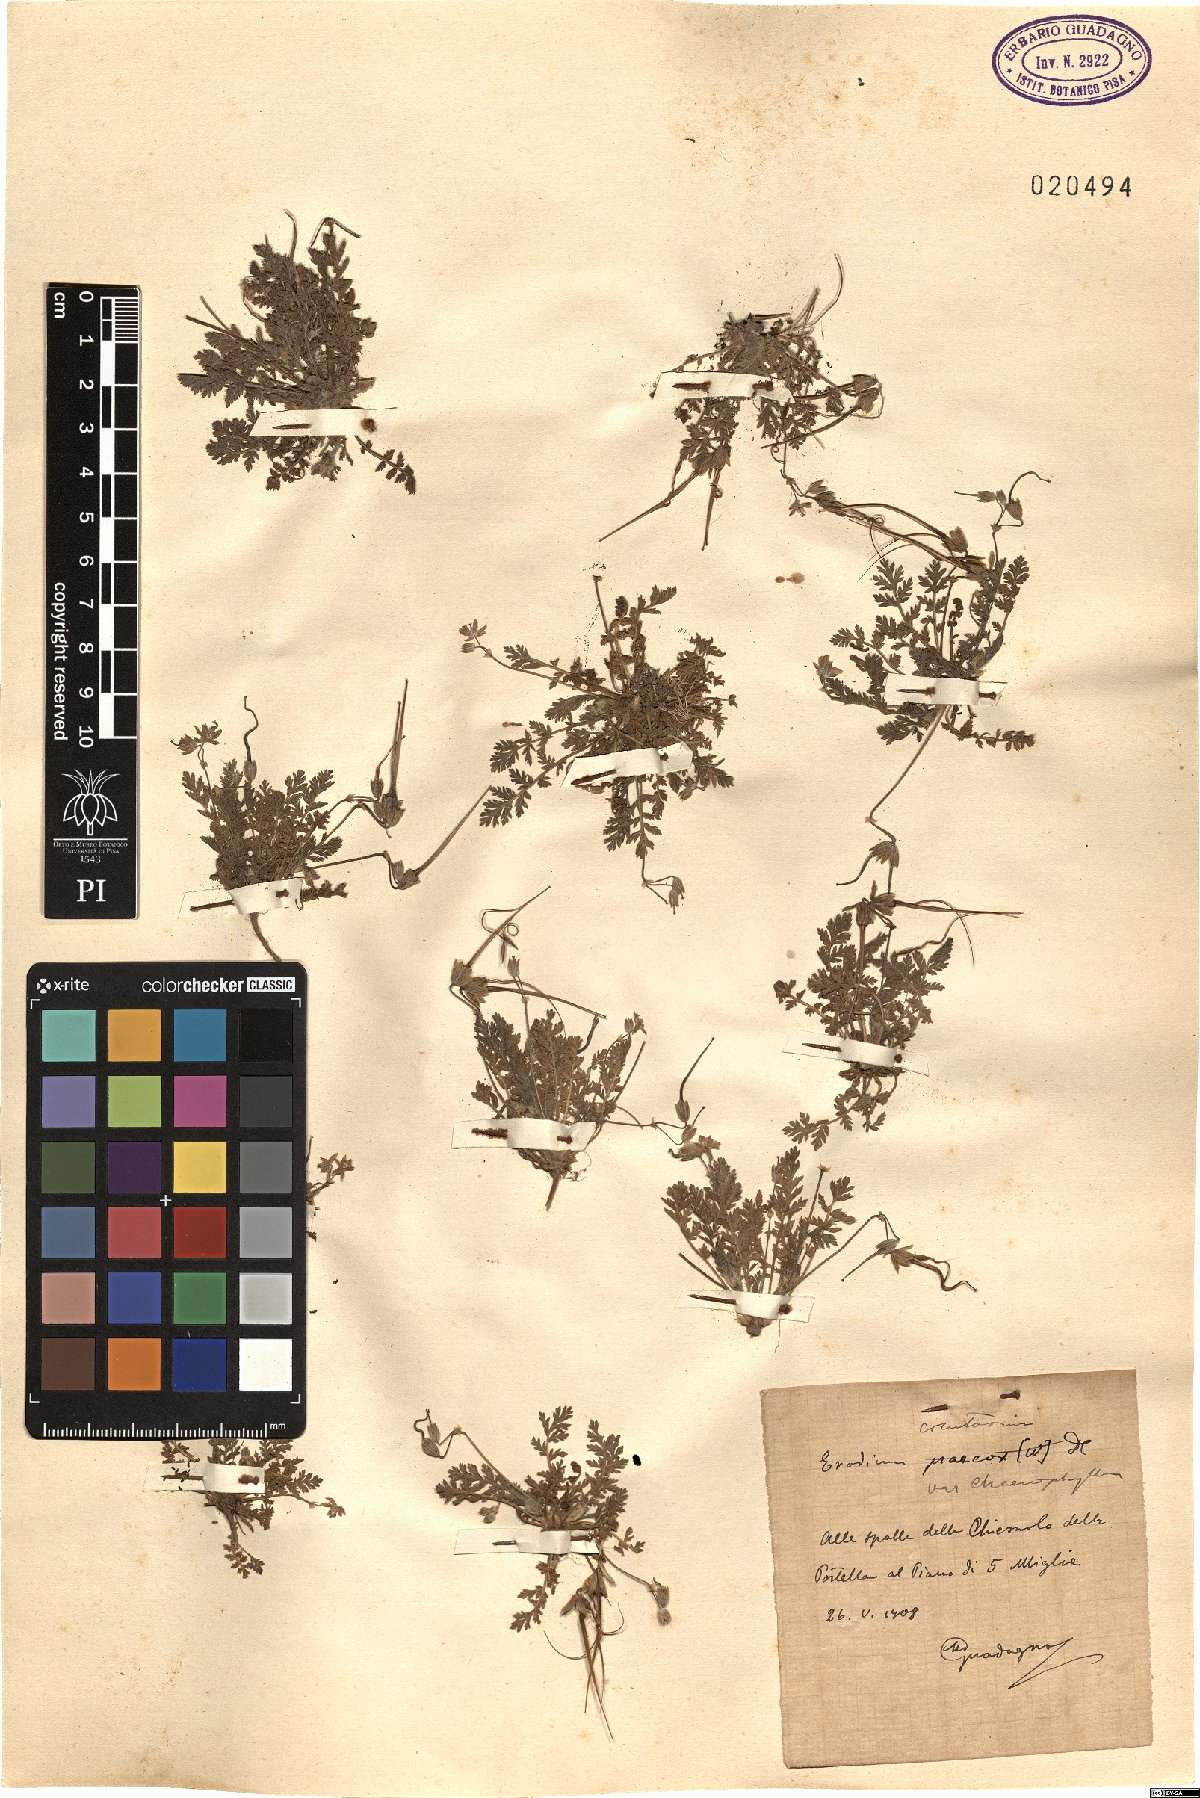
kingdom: Plantae
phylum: Tracheophyta
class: Magnoliopsida
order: Geraniales
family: Geraniaceae
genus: Erodium
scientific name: Erodium cicutarium
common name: Common stork's-bill
